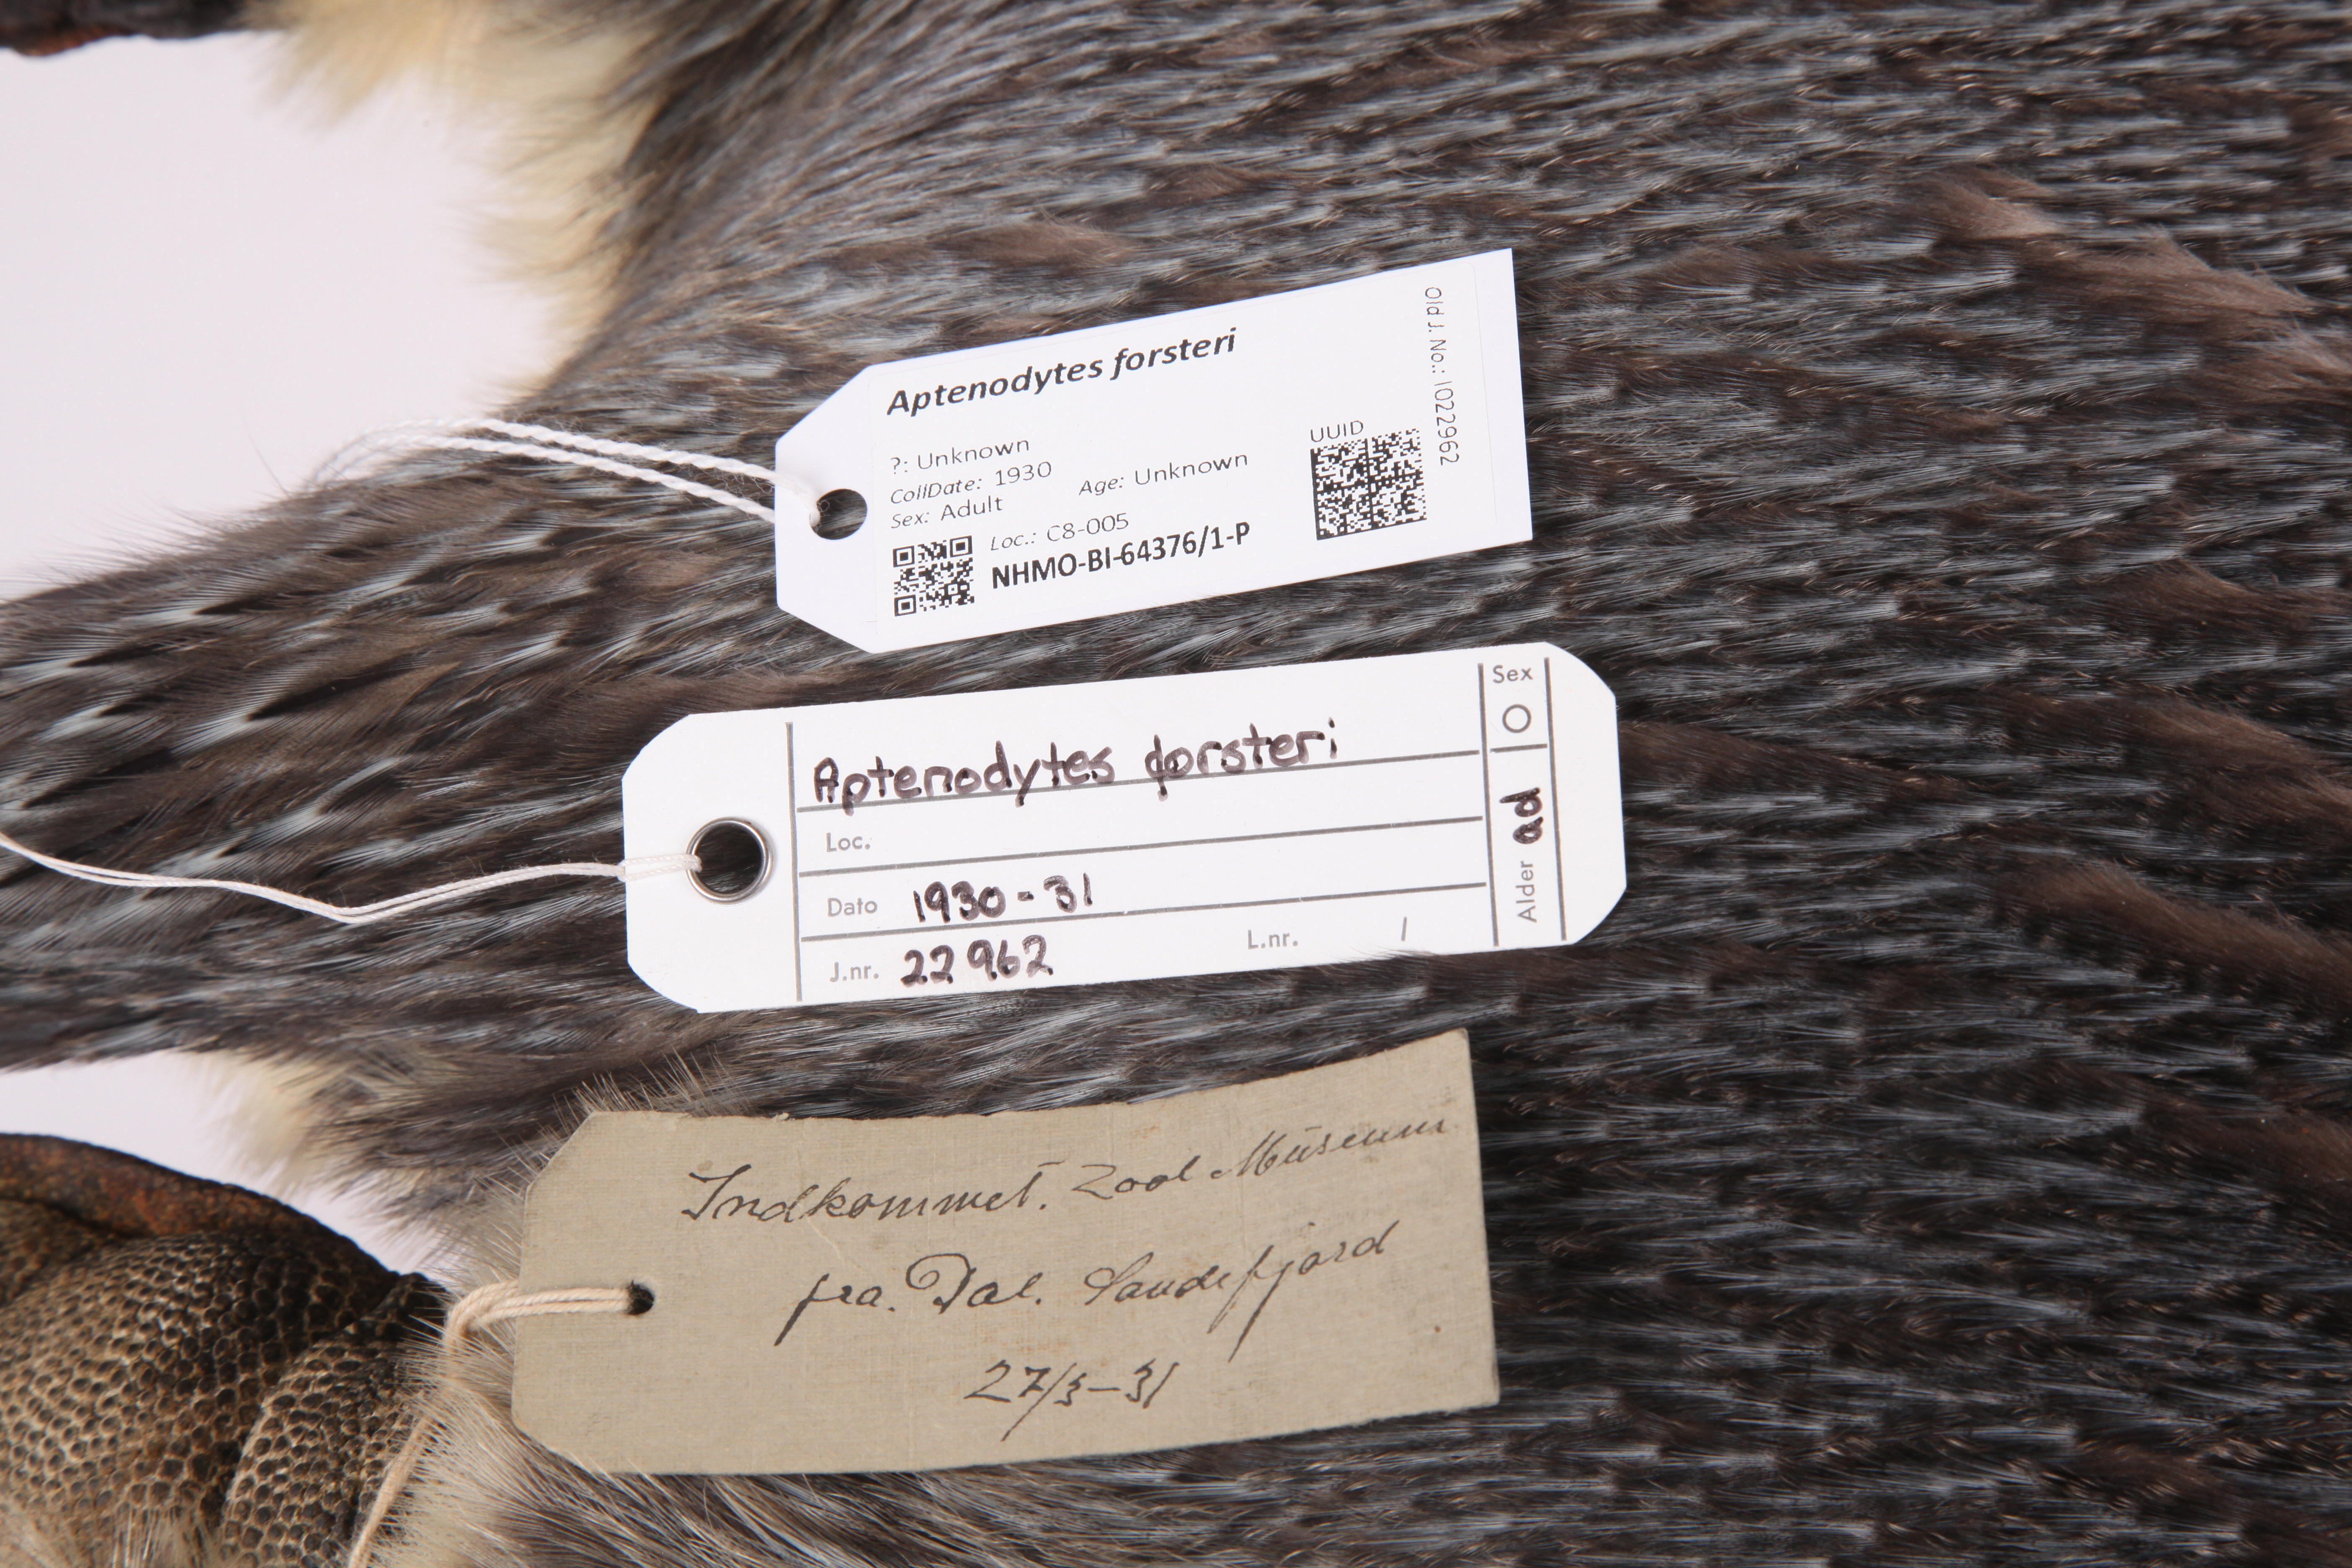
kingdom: Animalia
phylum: Chordata
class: Aves
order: Sphenisciformes
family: Spheniscidae
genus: Aptenodytes
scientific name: Aptenodytes forsteri
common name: Emperor penguin
